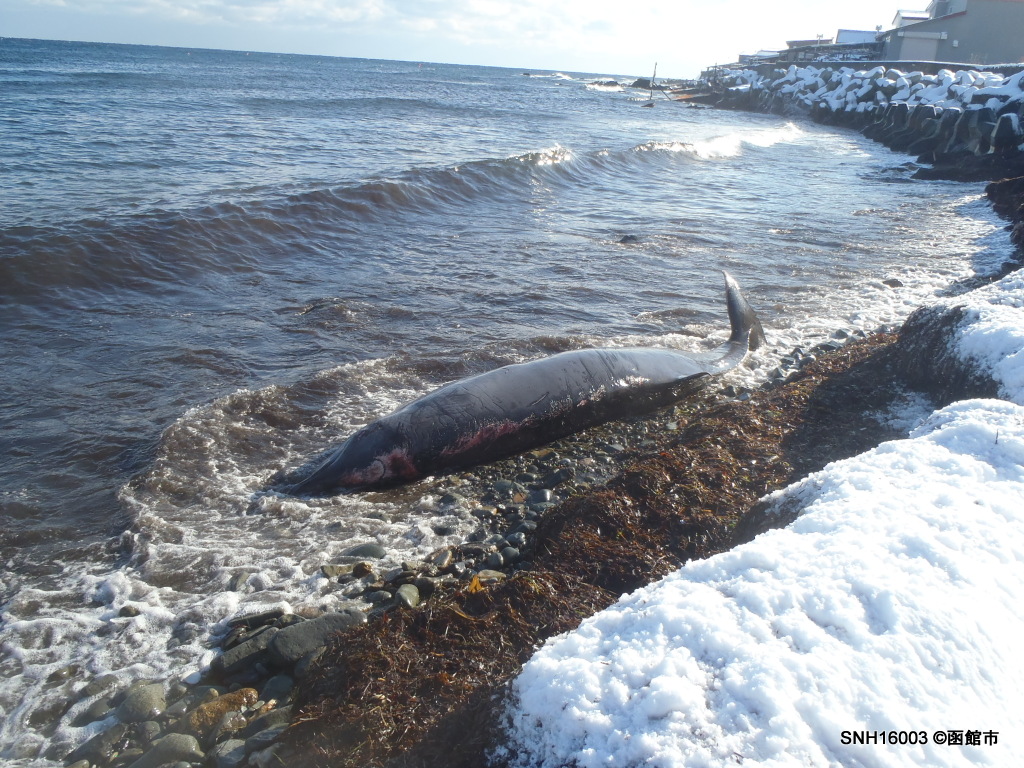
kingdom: Animalia
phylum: Chordata
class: Mammalia
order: Cetacea
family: Hyperoodontidae
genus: Mesoplodon
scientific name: Mesoplodon carlhubbsi
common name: Hubbs' beaked whale
